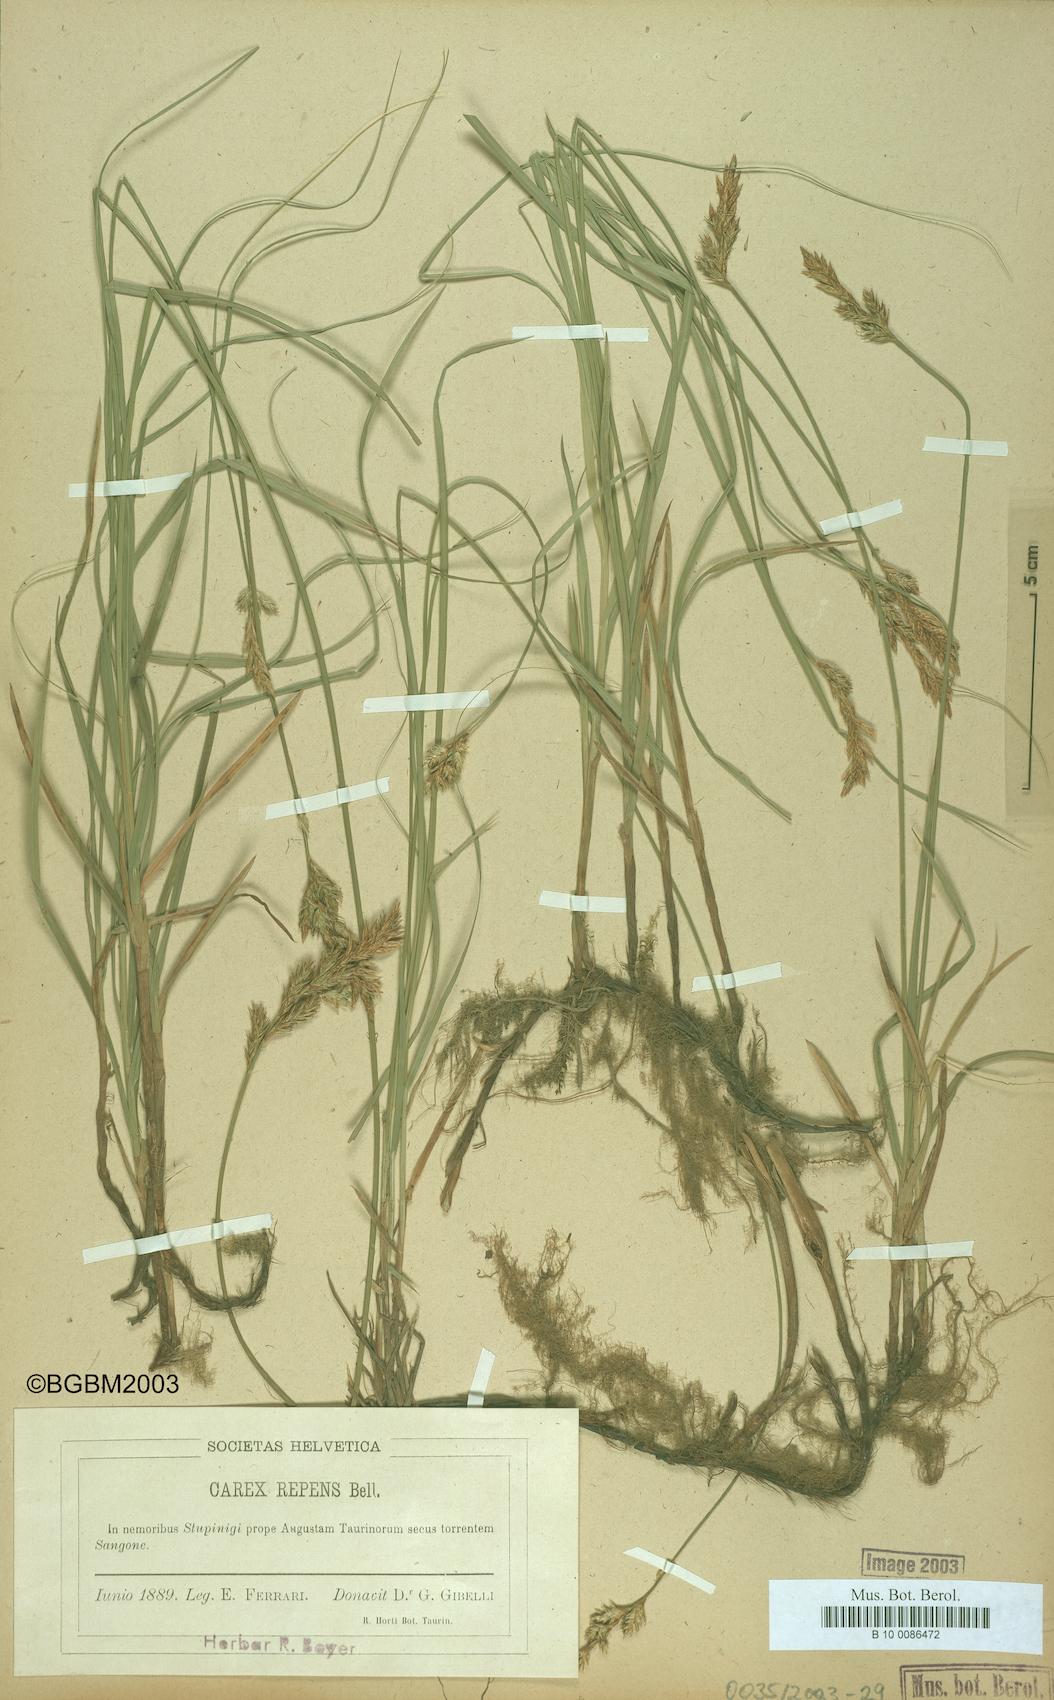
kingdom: Plantae
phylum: Tracheophyta
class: Liliopsida
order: Poales
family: Cyperaceae
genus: Carex
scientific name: Carex repens
